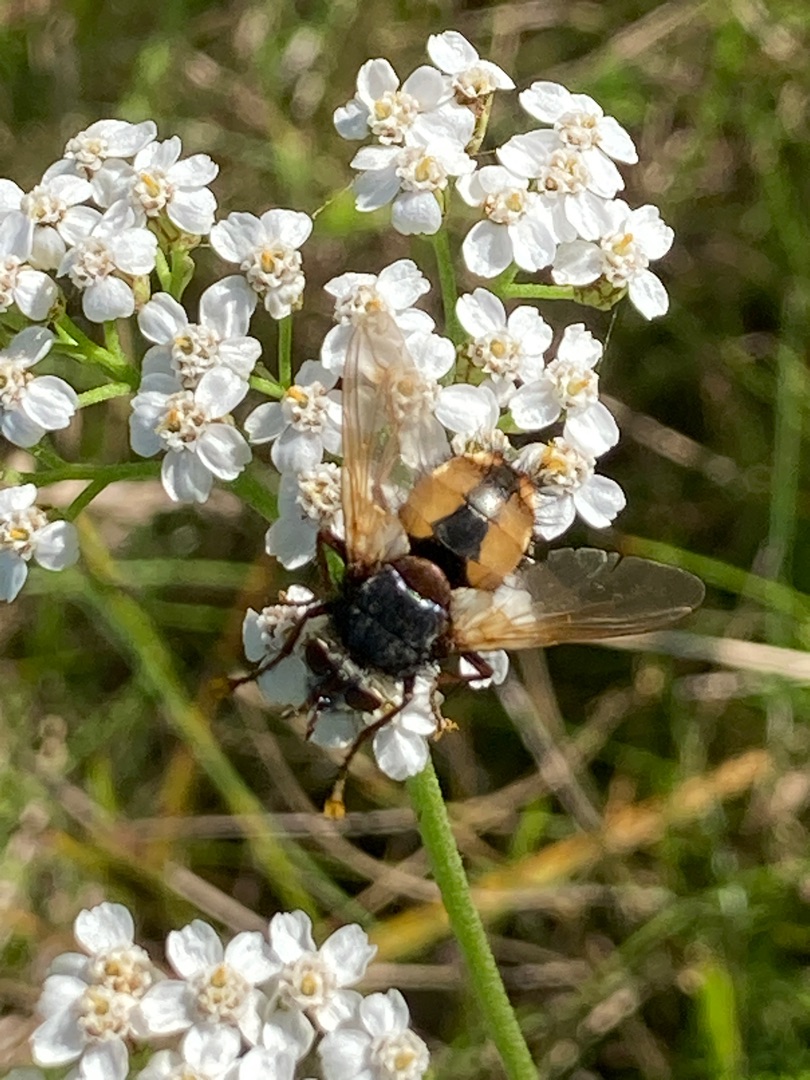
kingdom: Animalia
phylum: Arthropoda
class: Insecta
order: Diptera
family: Tachinidae
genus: Tachina
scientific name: Tachina fera
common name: Mellemfluen oskar
